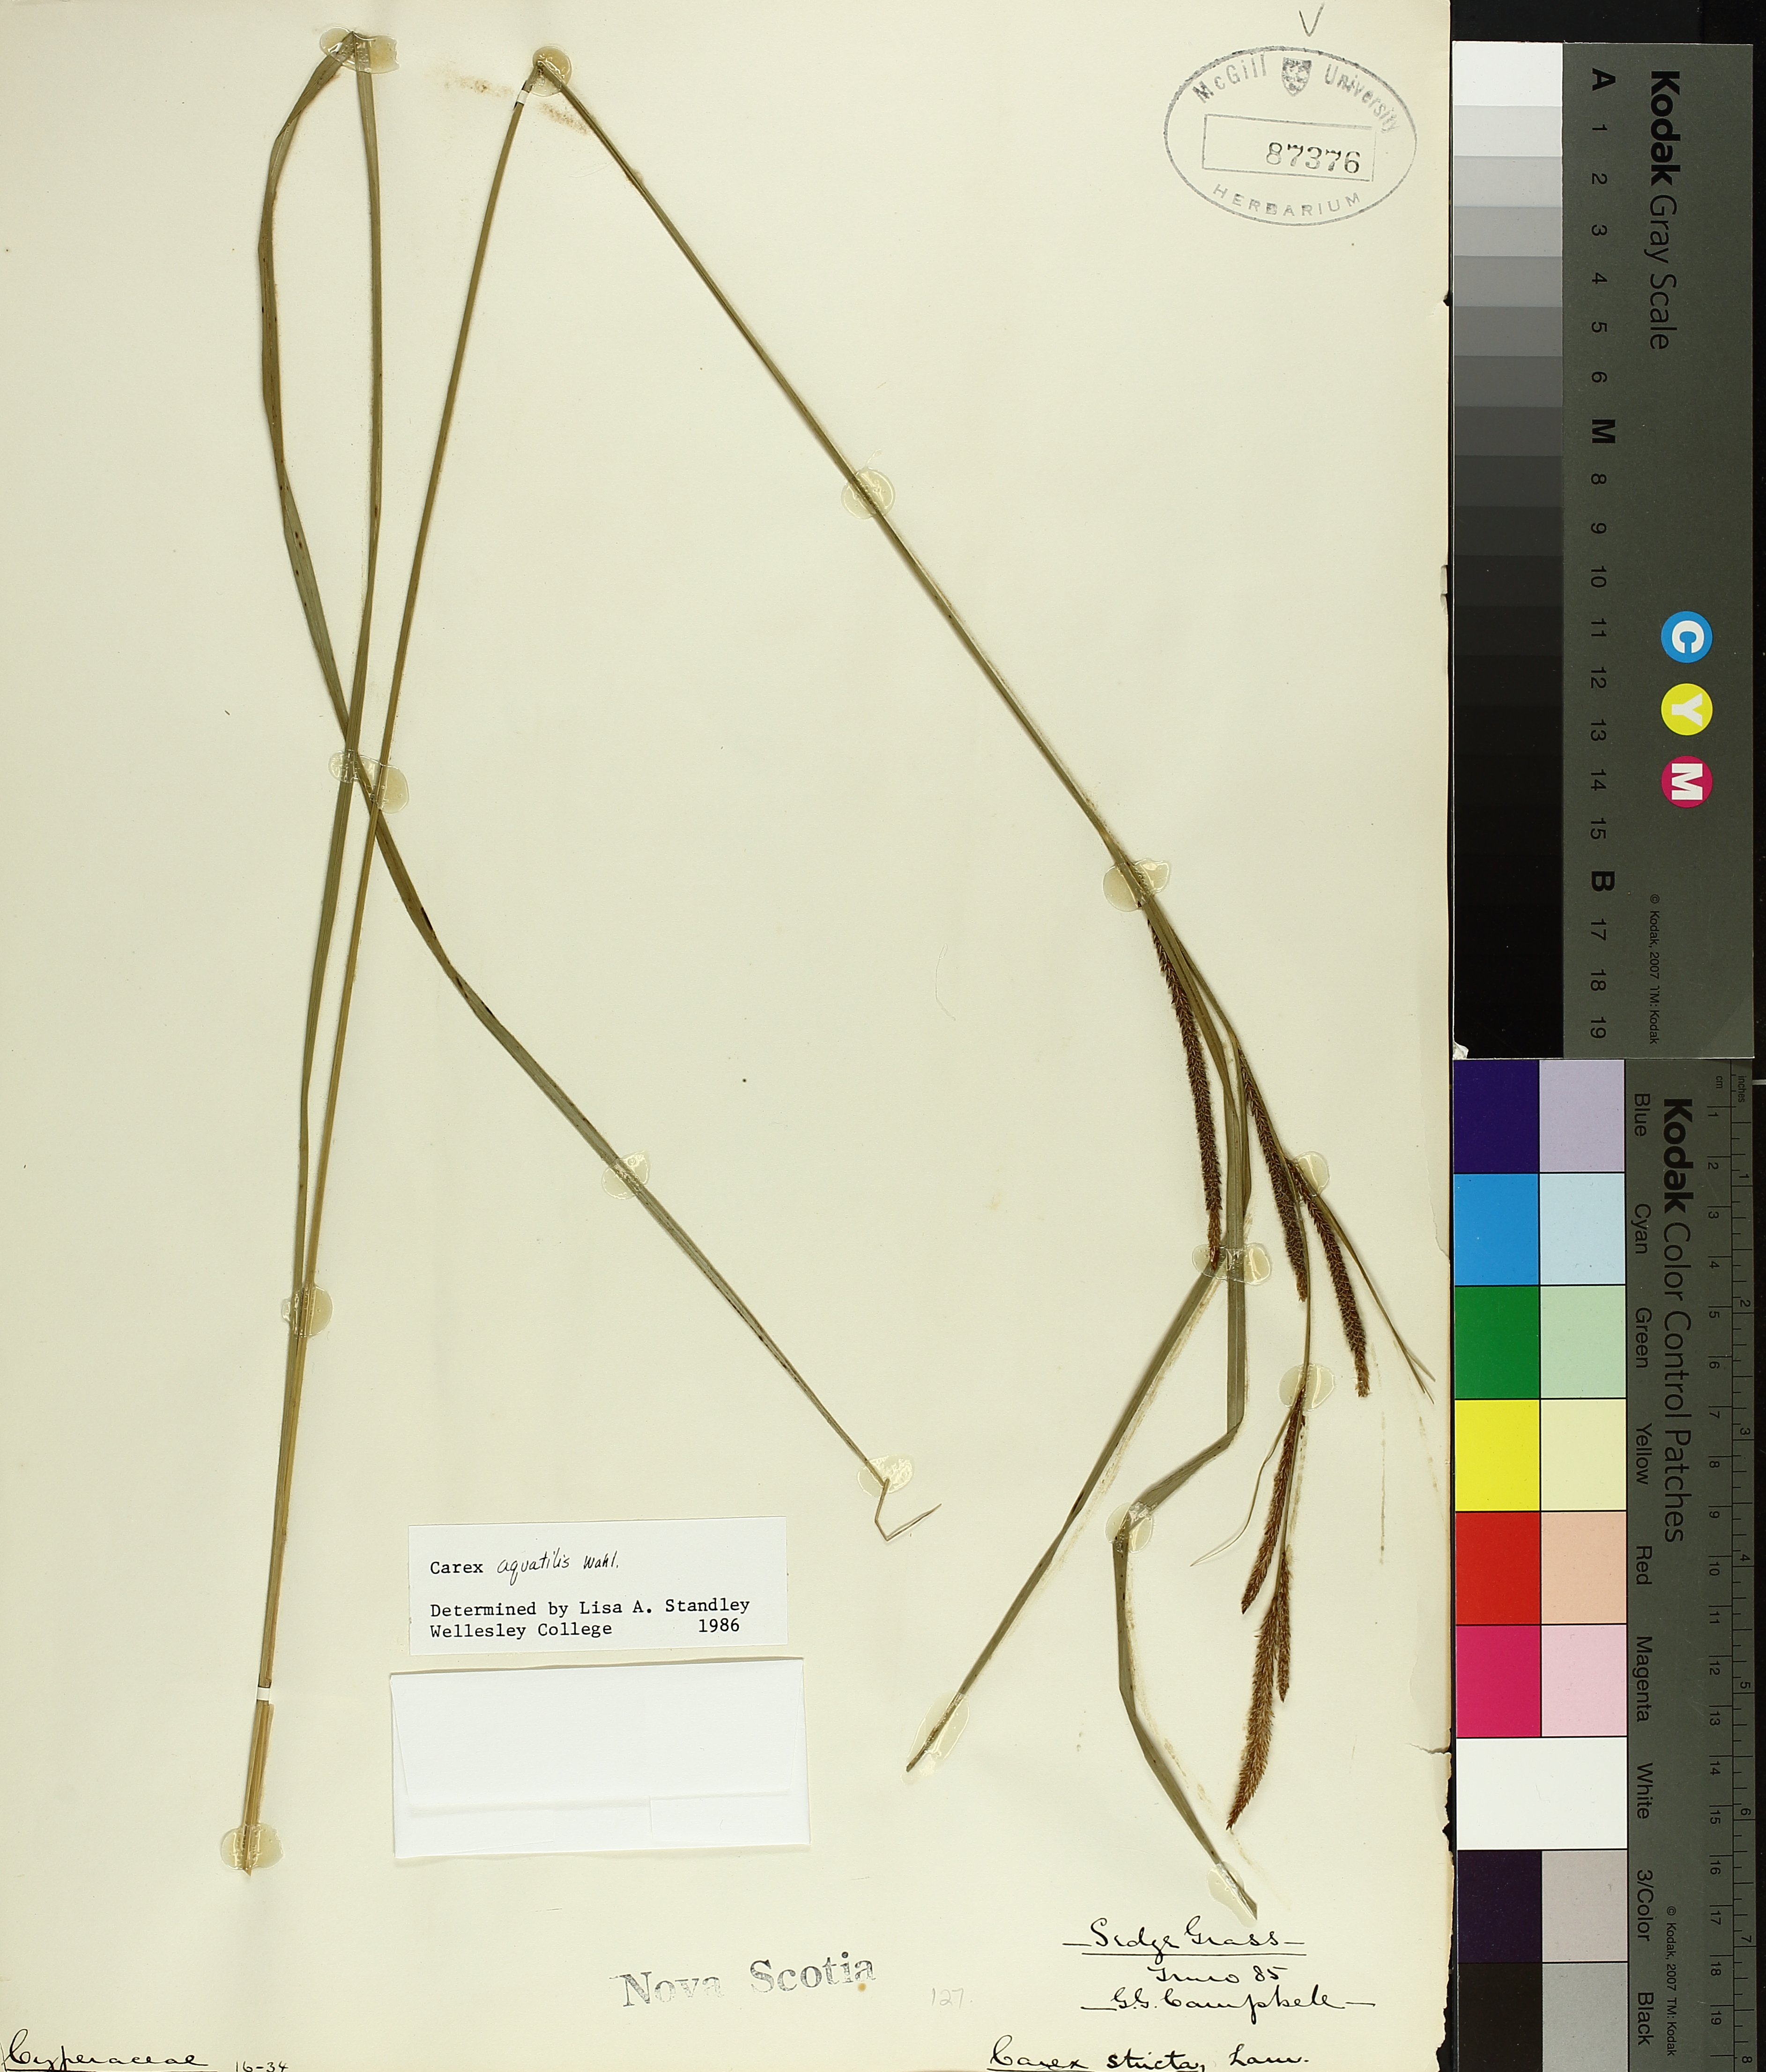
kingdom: Plantae
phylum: Tracheophyta
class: Liliopsida
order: Poales
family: Cyperaceae
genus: Carex
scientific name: Carex aquatilis
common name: Water sedge
